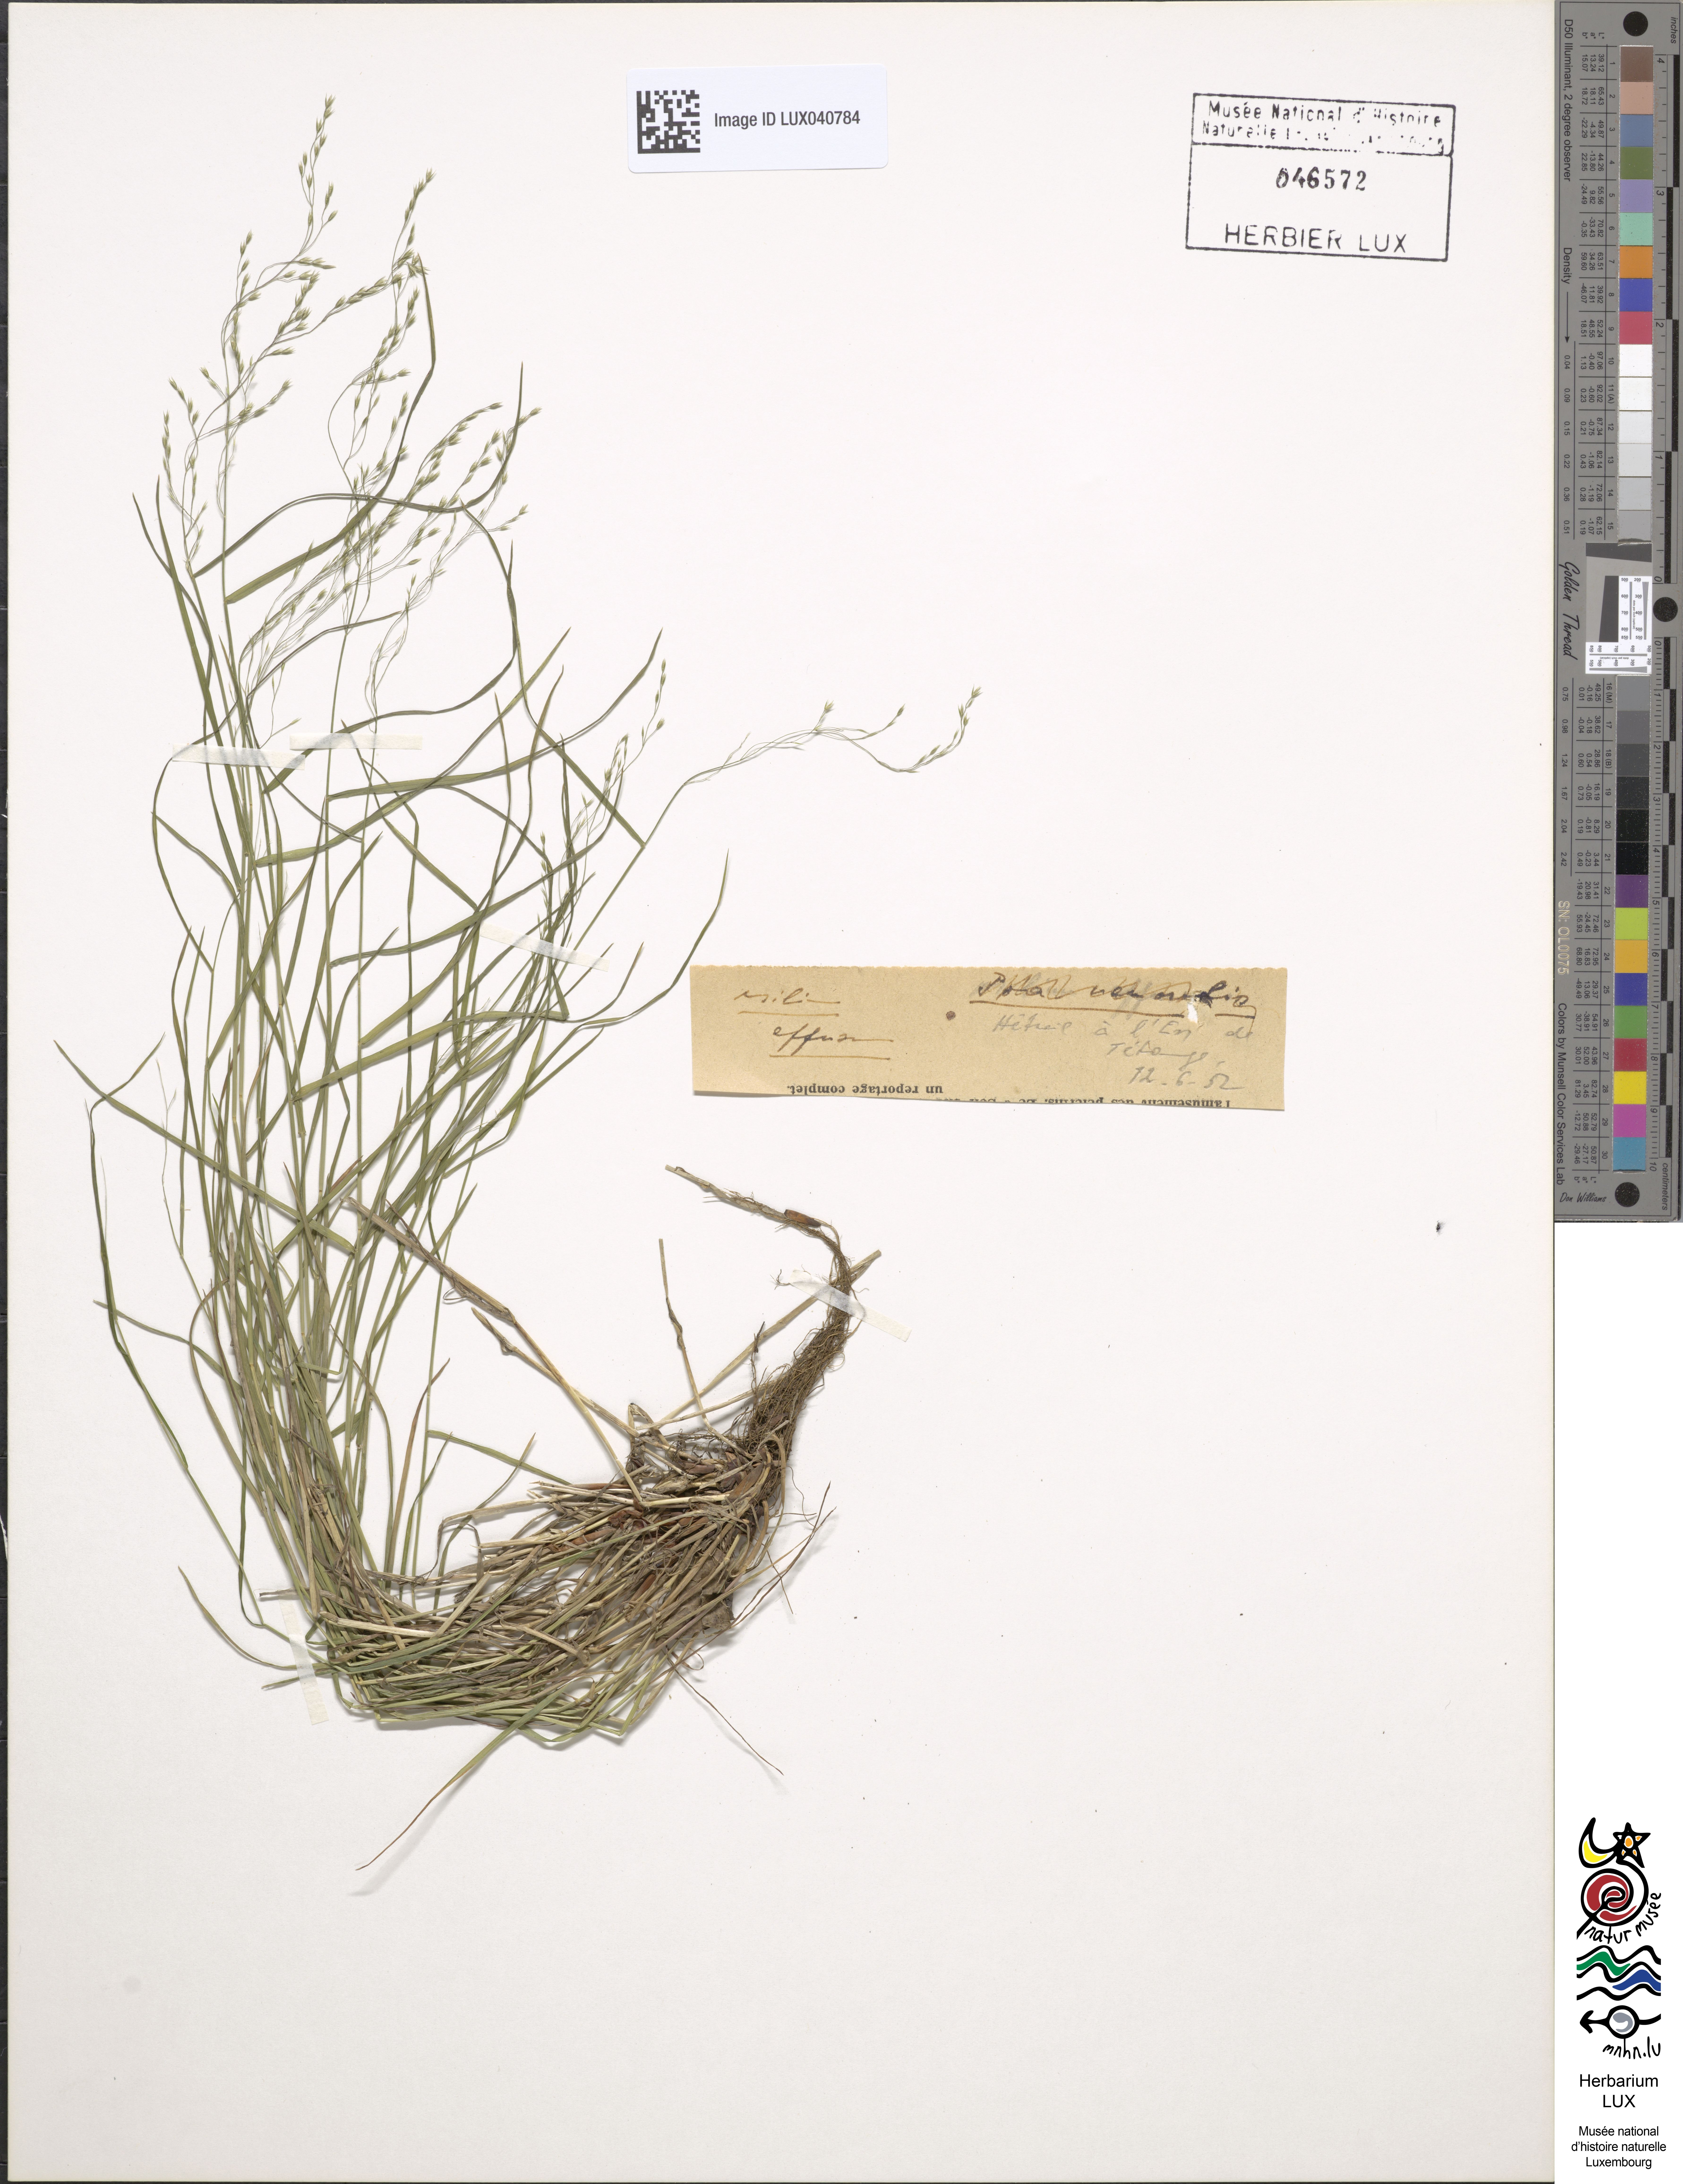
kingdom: Plantae
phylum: Tracheophyta
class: Liliopsida
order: Poales
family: Poaceae
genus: Milium
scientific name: Milium effusum
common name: Wood millet
